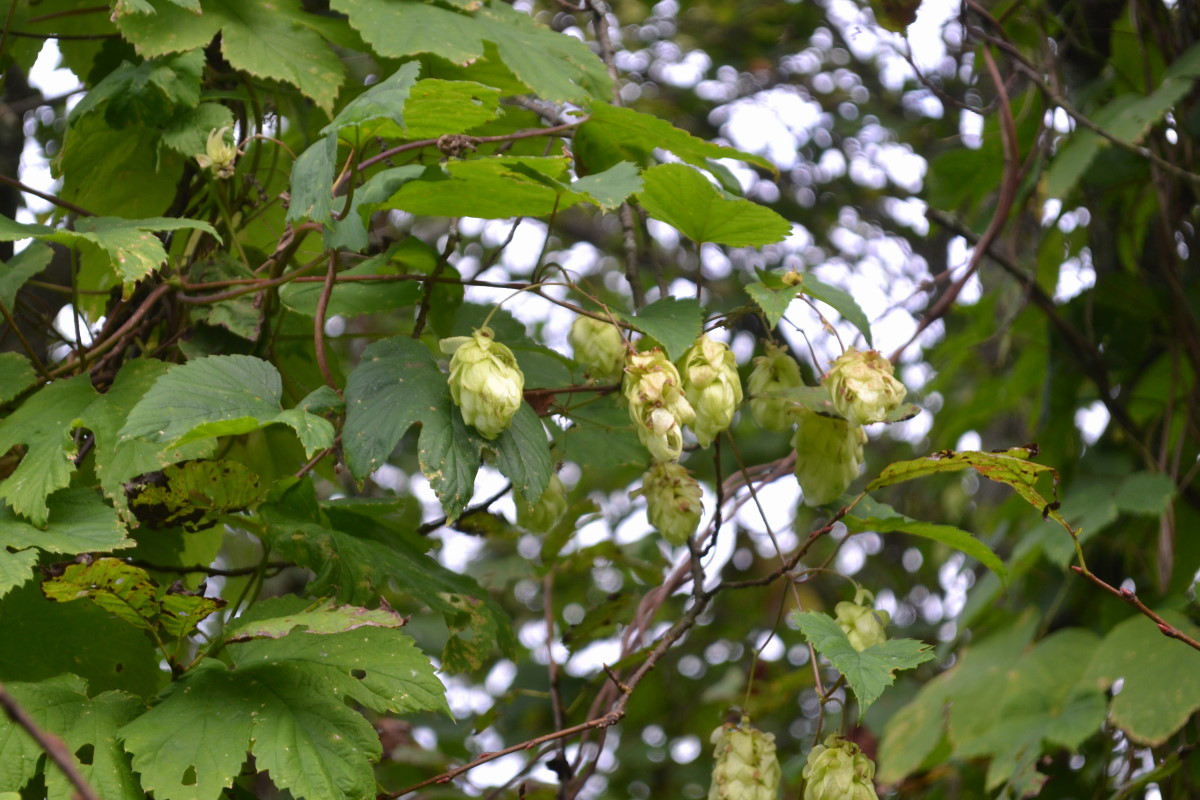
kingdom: Plantae
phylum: Tracheophyta
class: Magnoliopsida
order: Rosales
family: Cannabaceae
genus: Humulus
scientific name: Humulus lupulus
